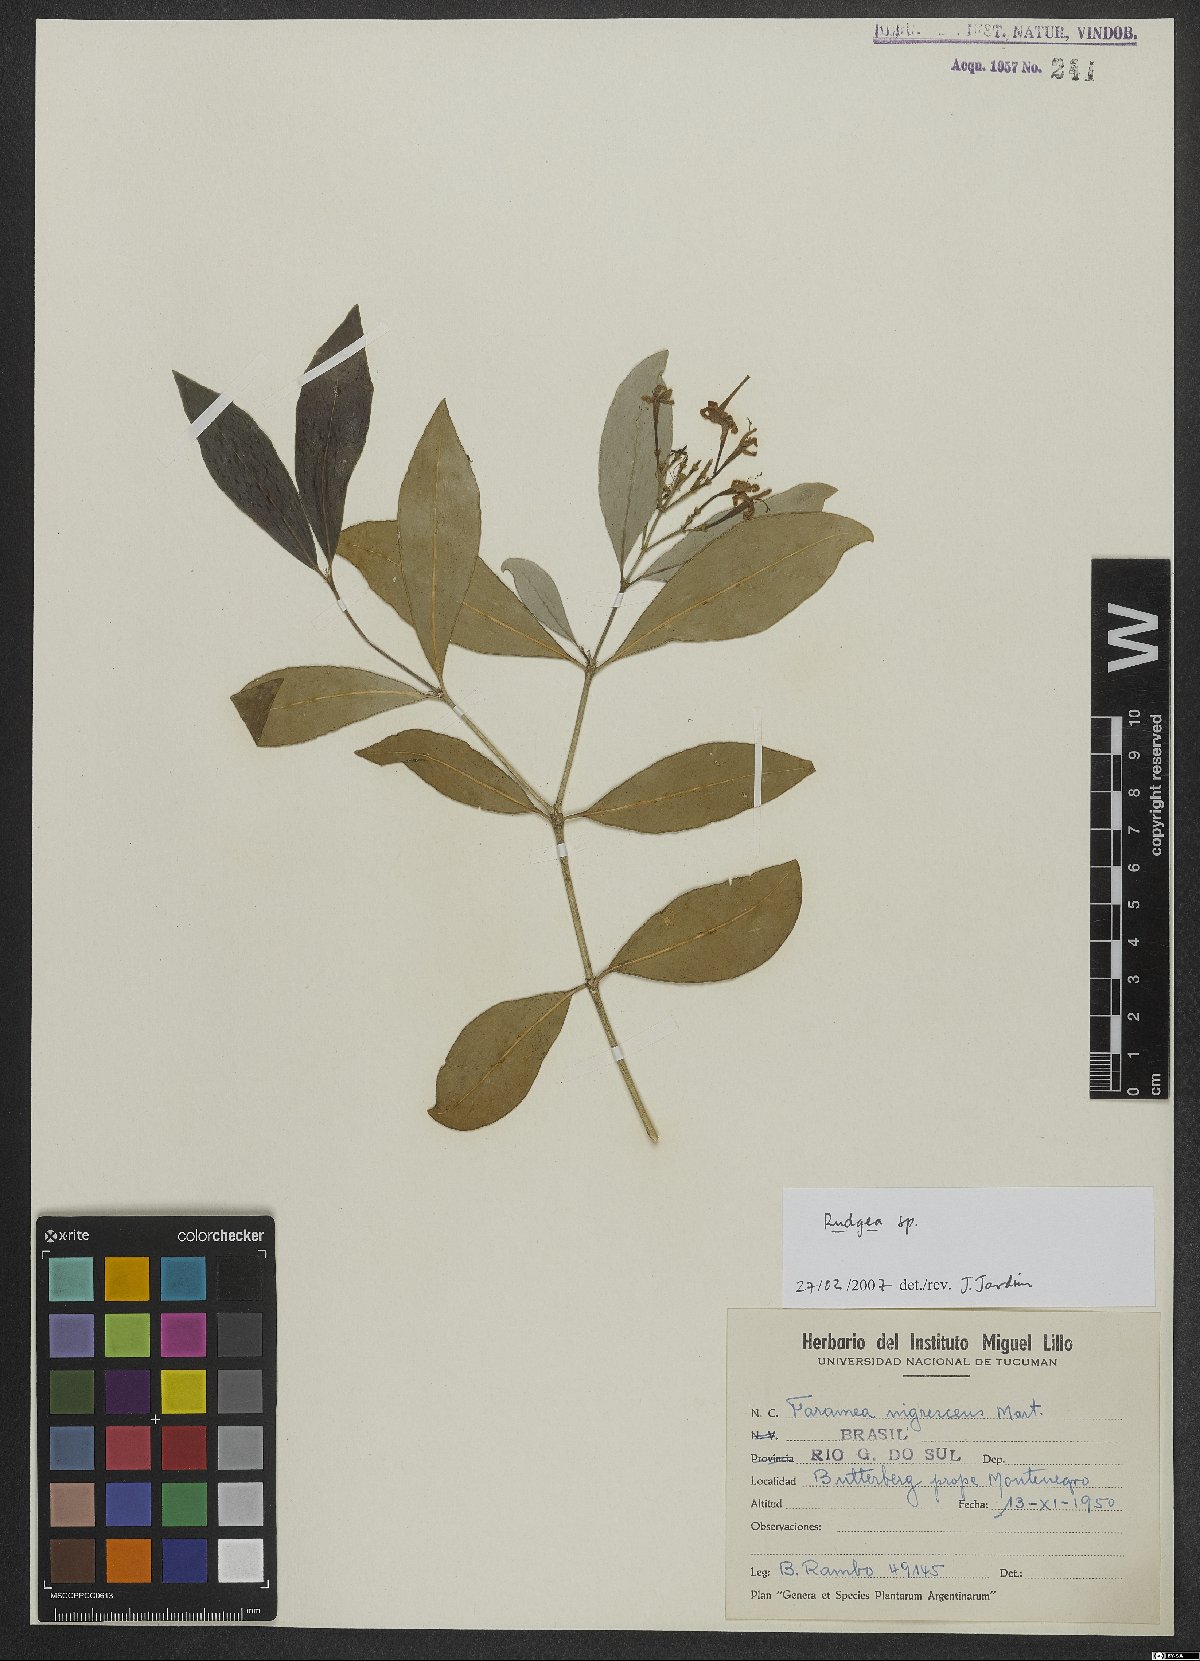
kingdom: Plantae
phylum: Tracheophyta
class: Magnoliopsida
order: Gentianales
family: Rubiaceae
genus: Rudgea
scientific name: Rudgea
